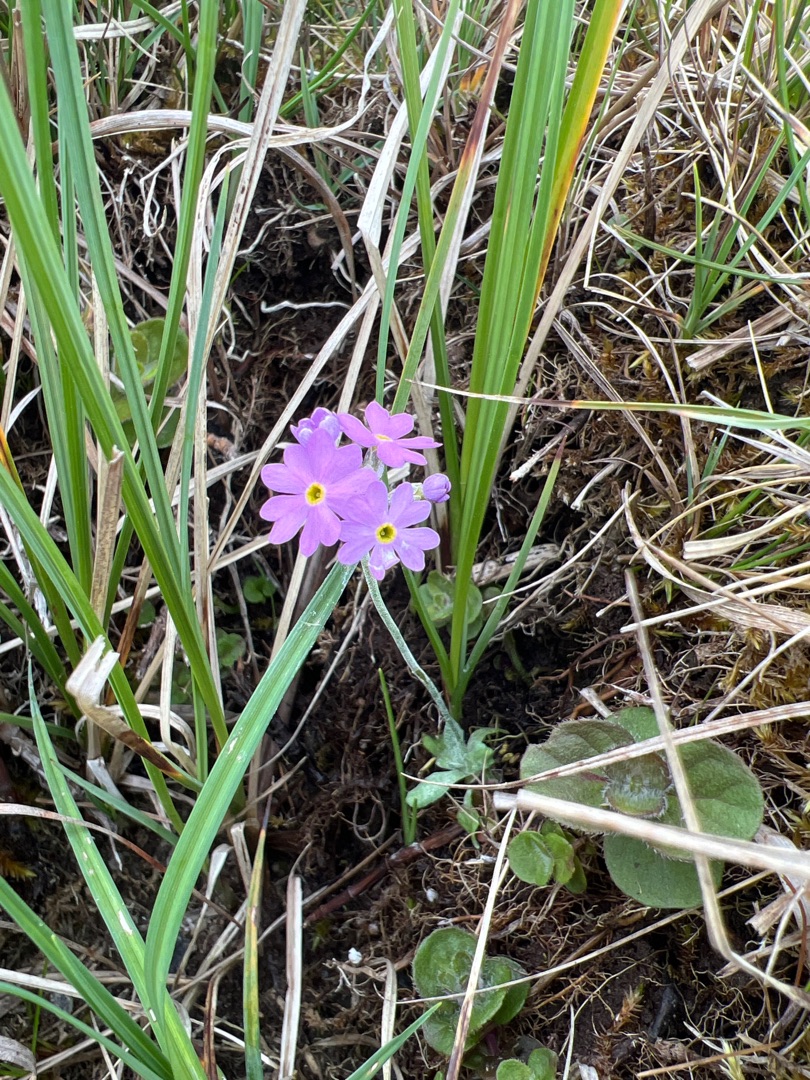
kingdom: Plantae
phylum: Tracheophyta
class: Magnoliopsida
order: Ericales
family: Primulaceae
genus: Primula
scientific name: Primula farinosa
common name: Melet kodriver
